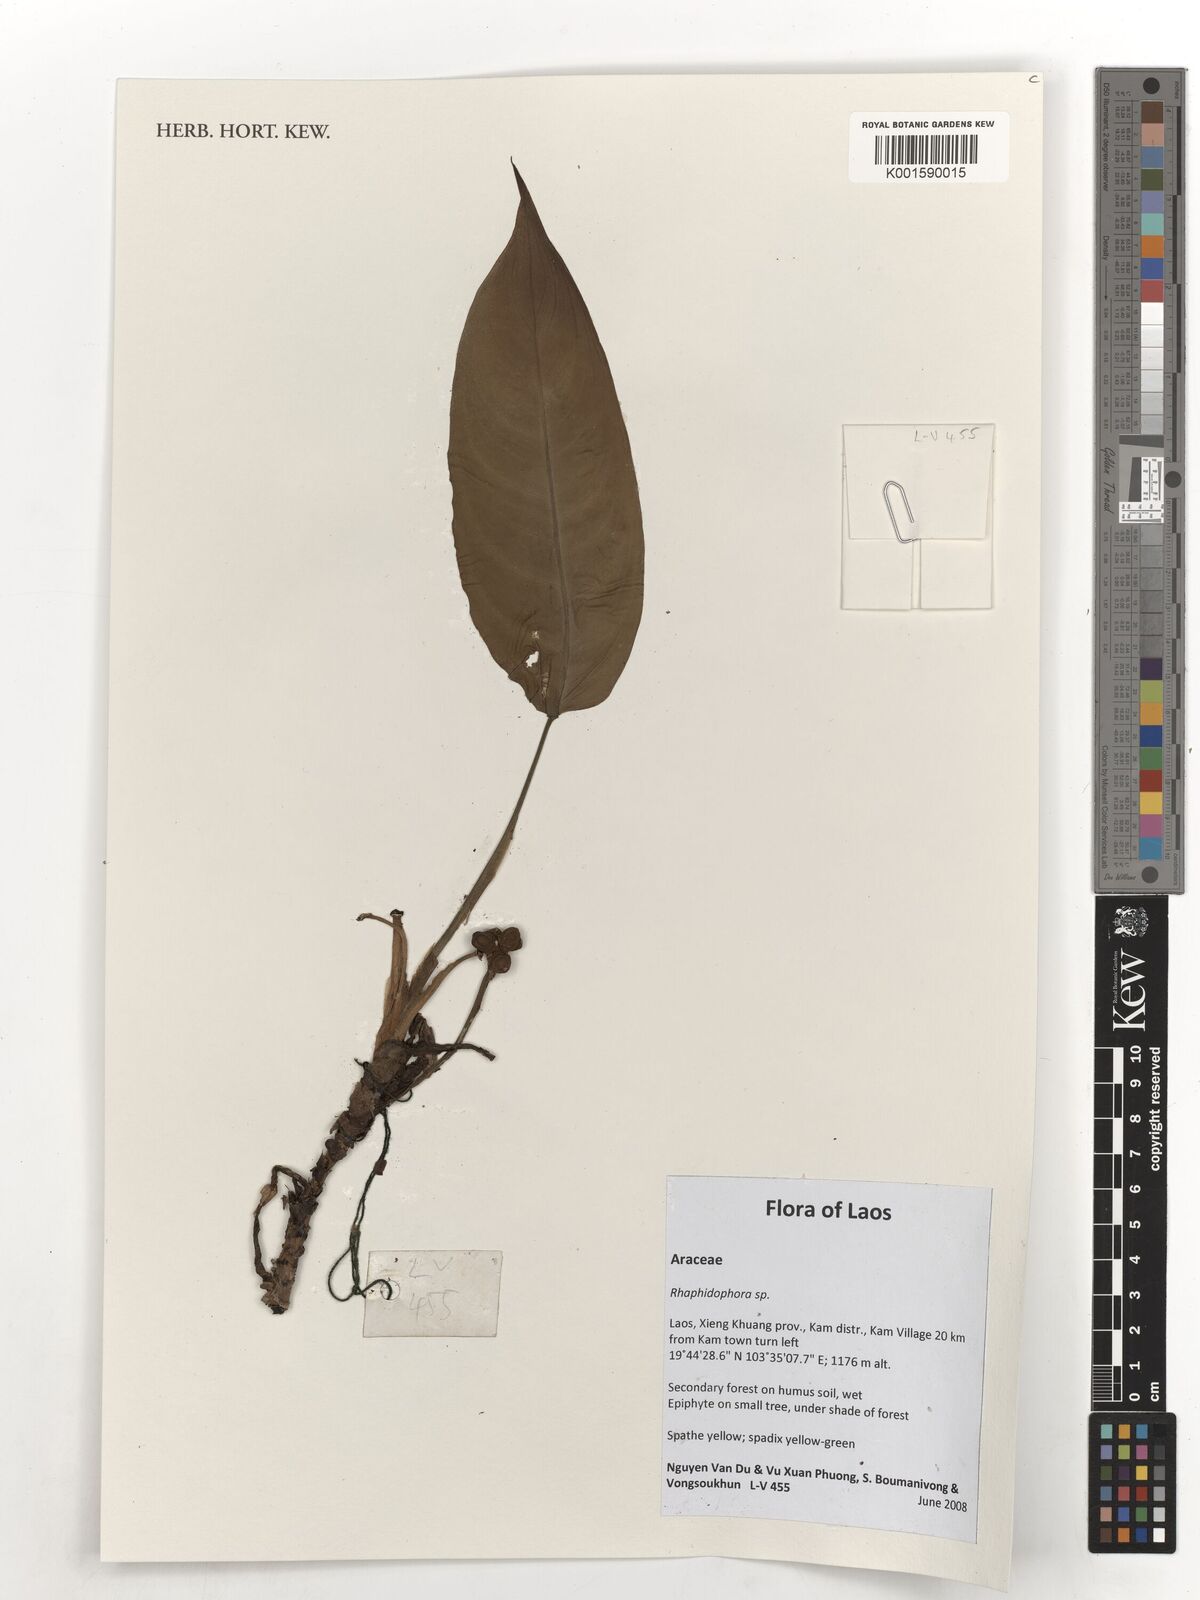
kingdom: Plantae
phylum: Tracheophyta
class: Liliopsida
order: Alismatales
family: Araceae
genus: Rhaphidophora
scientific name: Rhaphidophora
